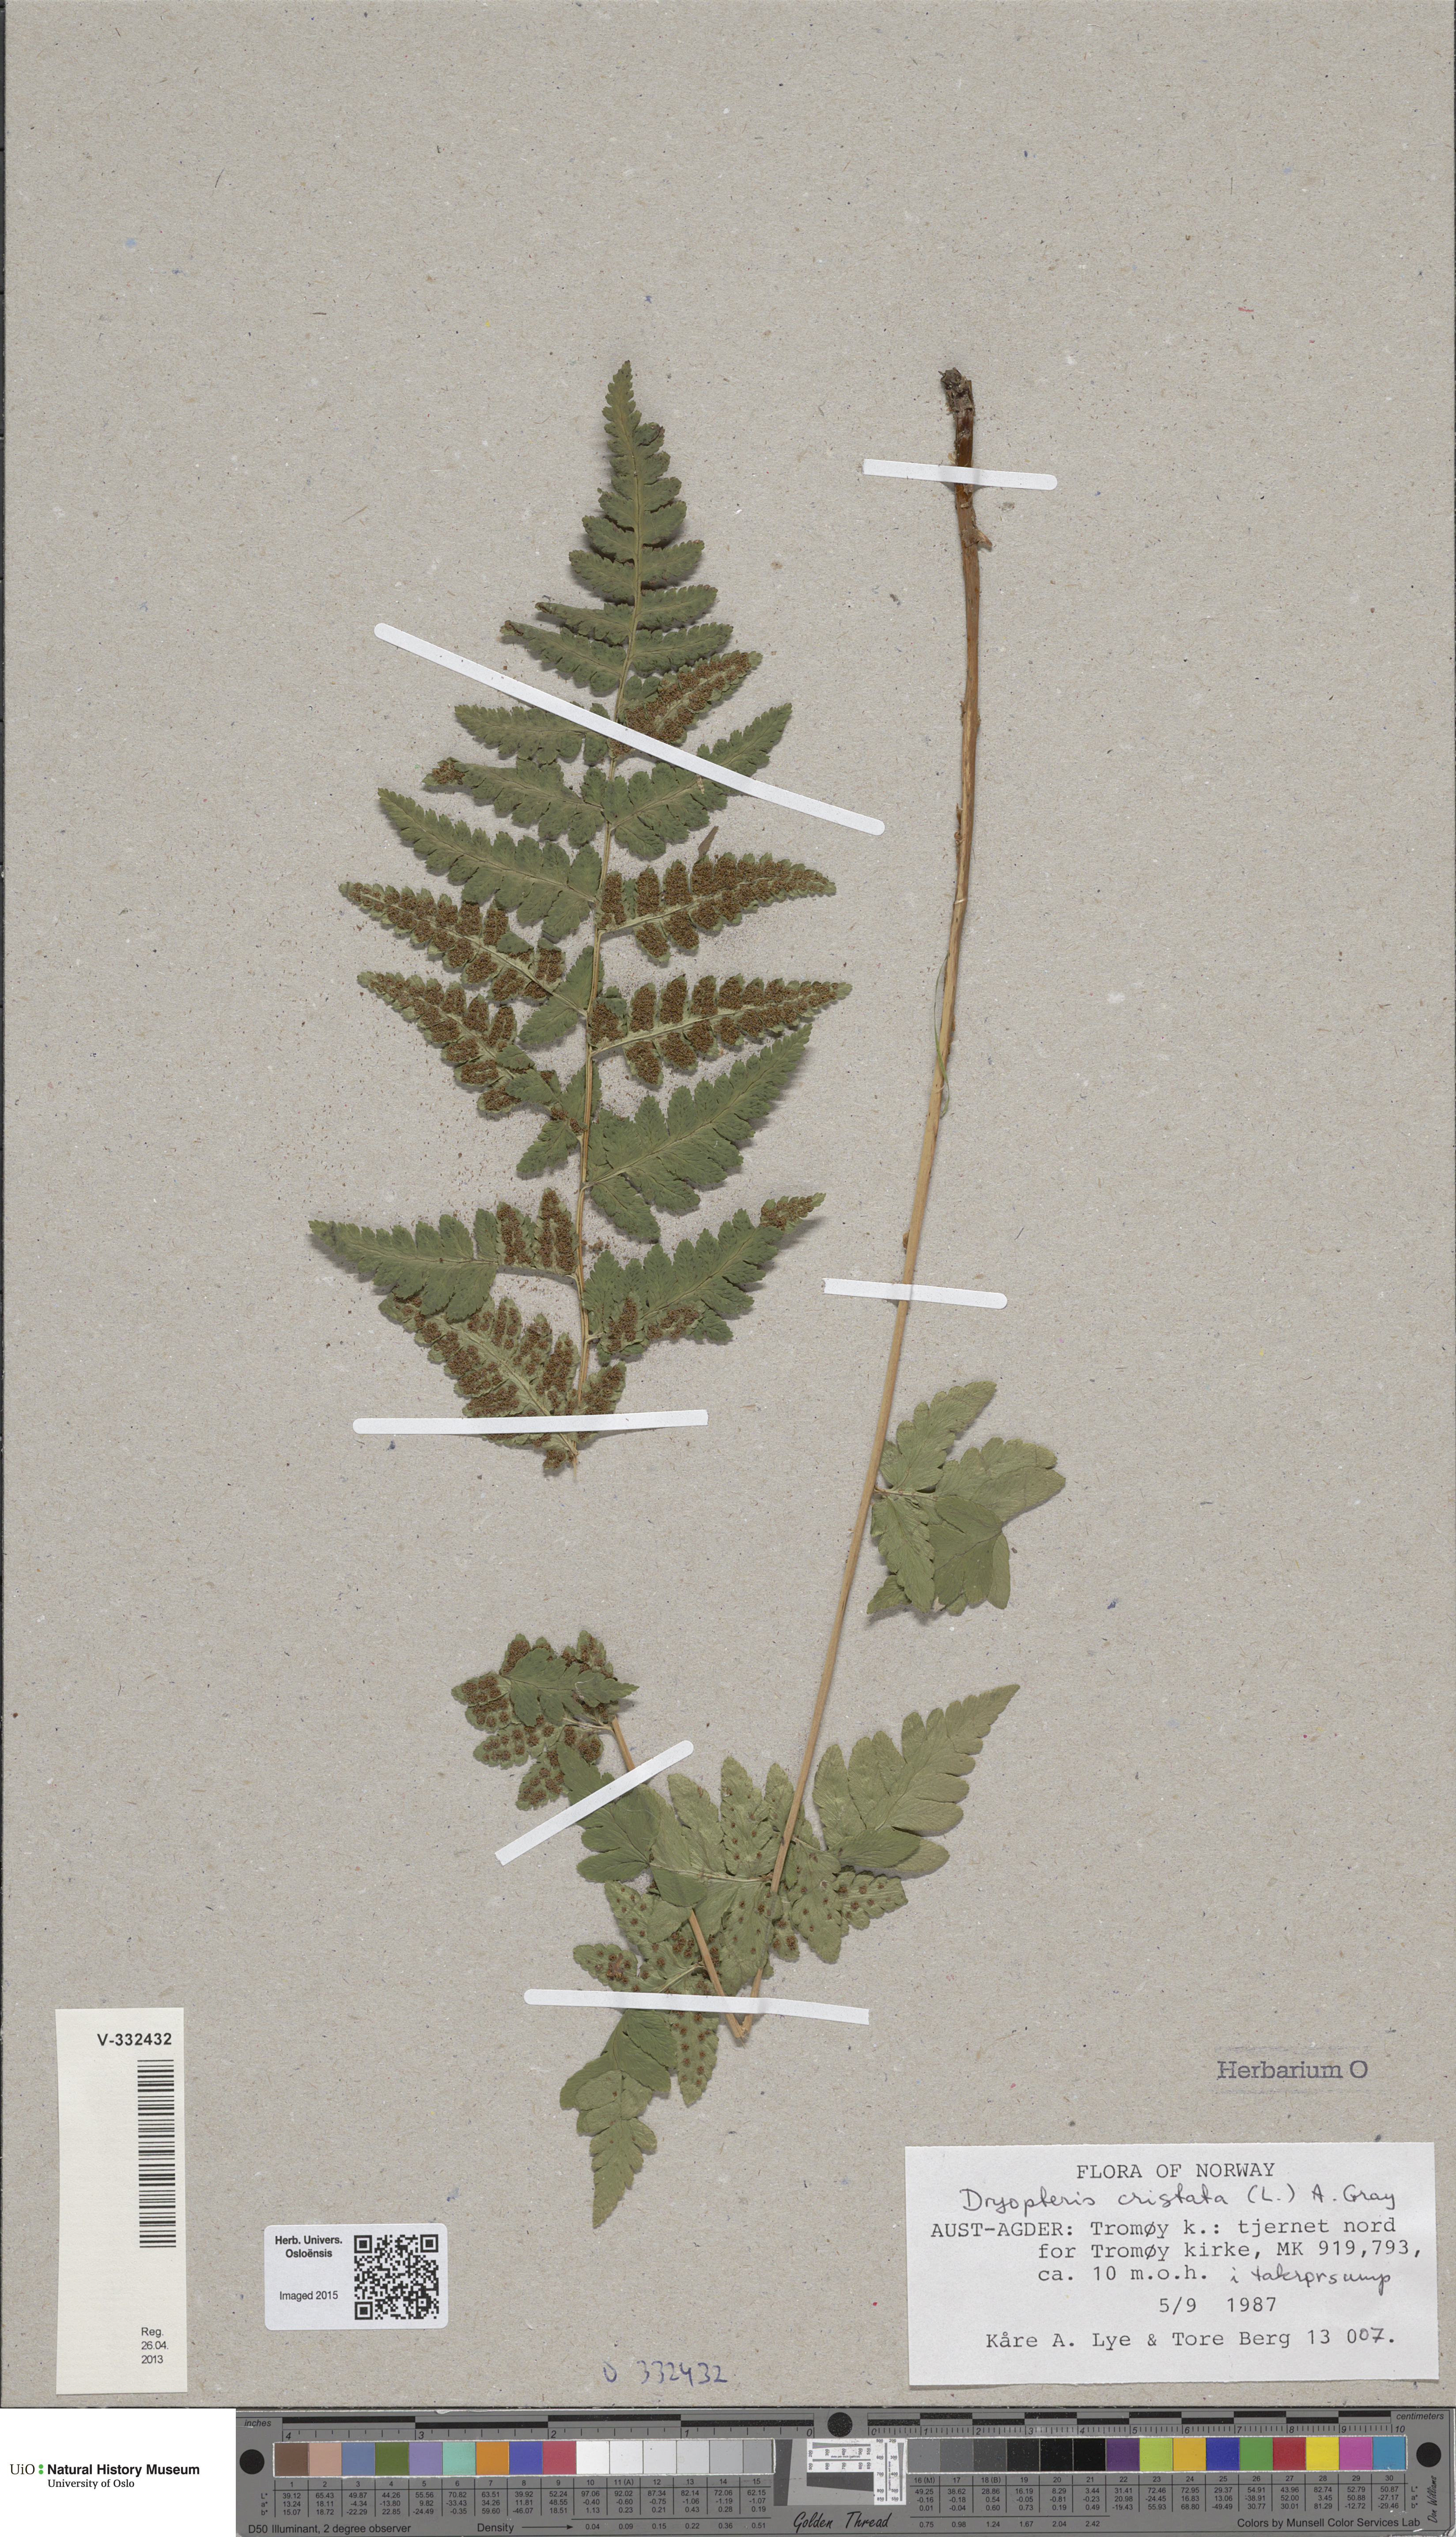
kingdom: Plantae
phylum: Tracheophyta
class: Polypodiopsida
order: Polypodiales
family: Dryopteridaceae
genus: Dryopteris
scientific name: Dryopteris cristata
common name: Crested wood fern
